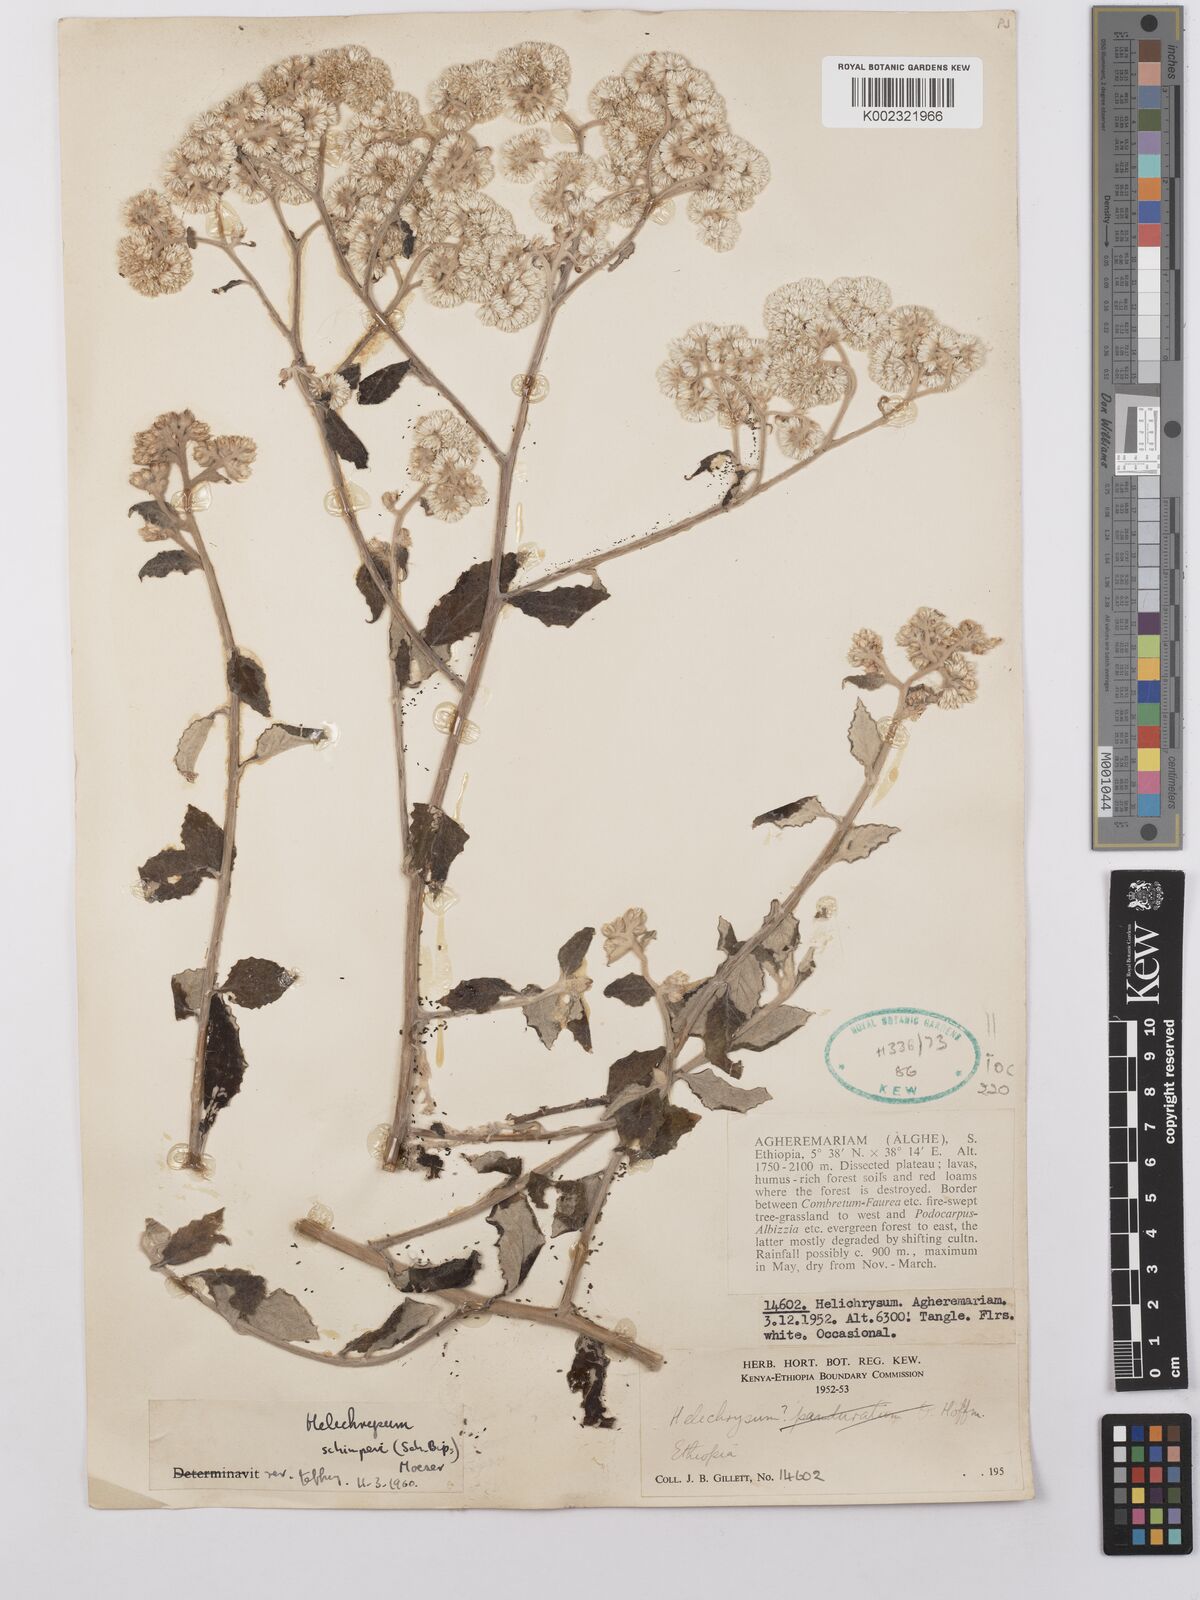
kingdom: Plantae
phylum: Tracheophyta
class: Magnoliopsida
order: Asterales
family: Asteraceae
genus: Helichrysum
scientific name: Helichrysum schimperi
